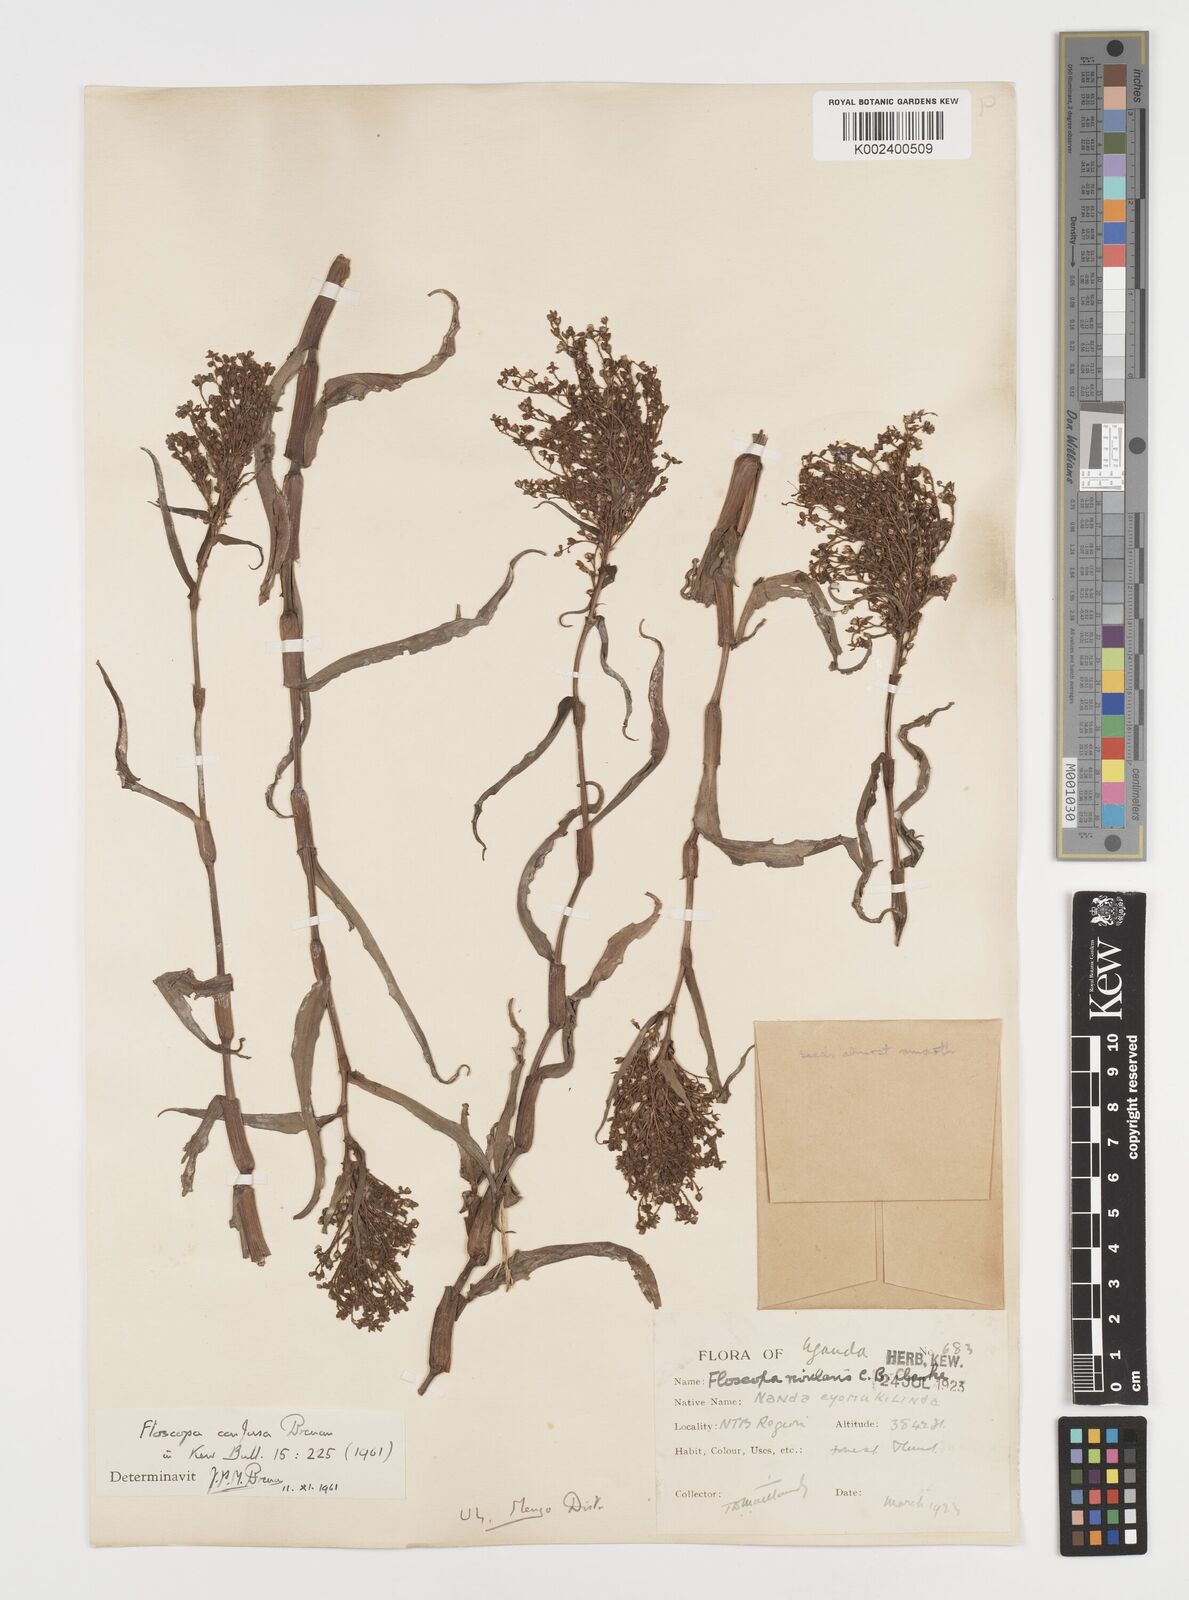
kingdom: Plantae
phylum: Tracheophyta
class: Liliopsida
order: Commelinales
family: Commelinaceae
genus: Floscopa
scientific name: Floscopa confusa
